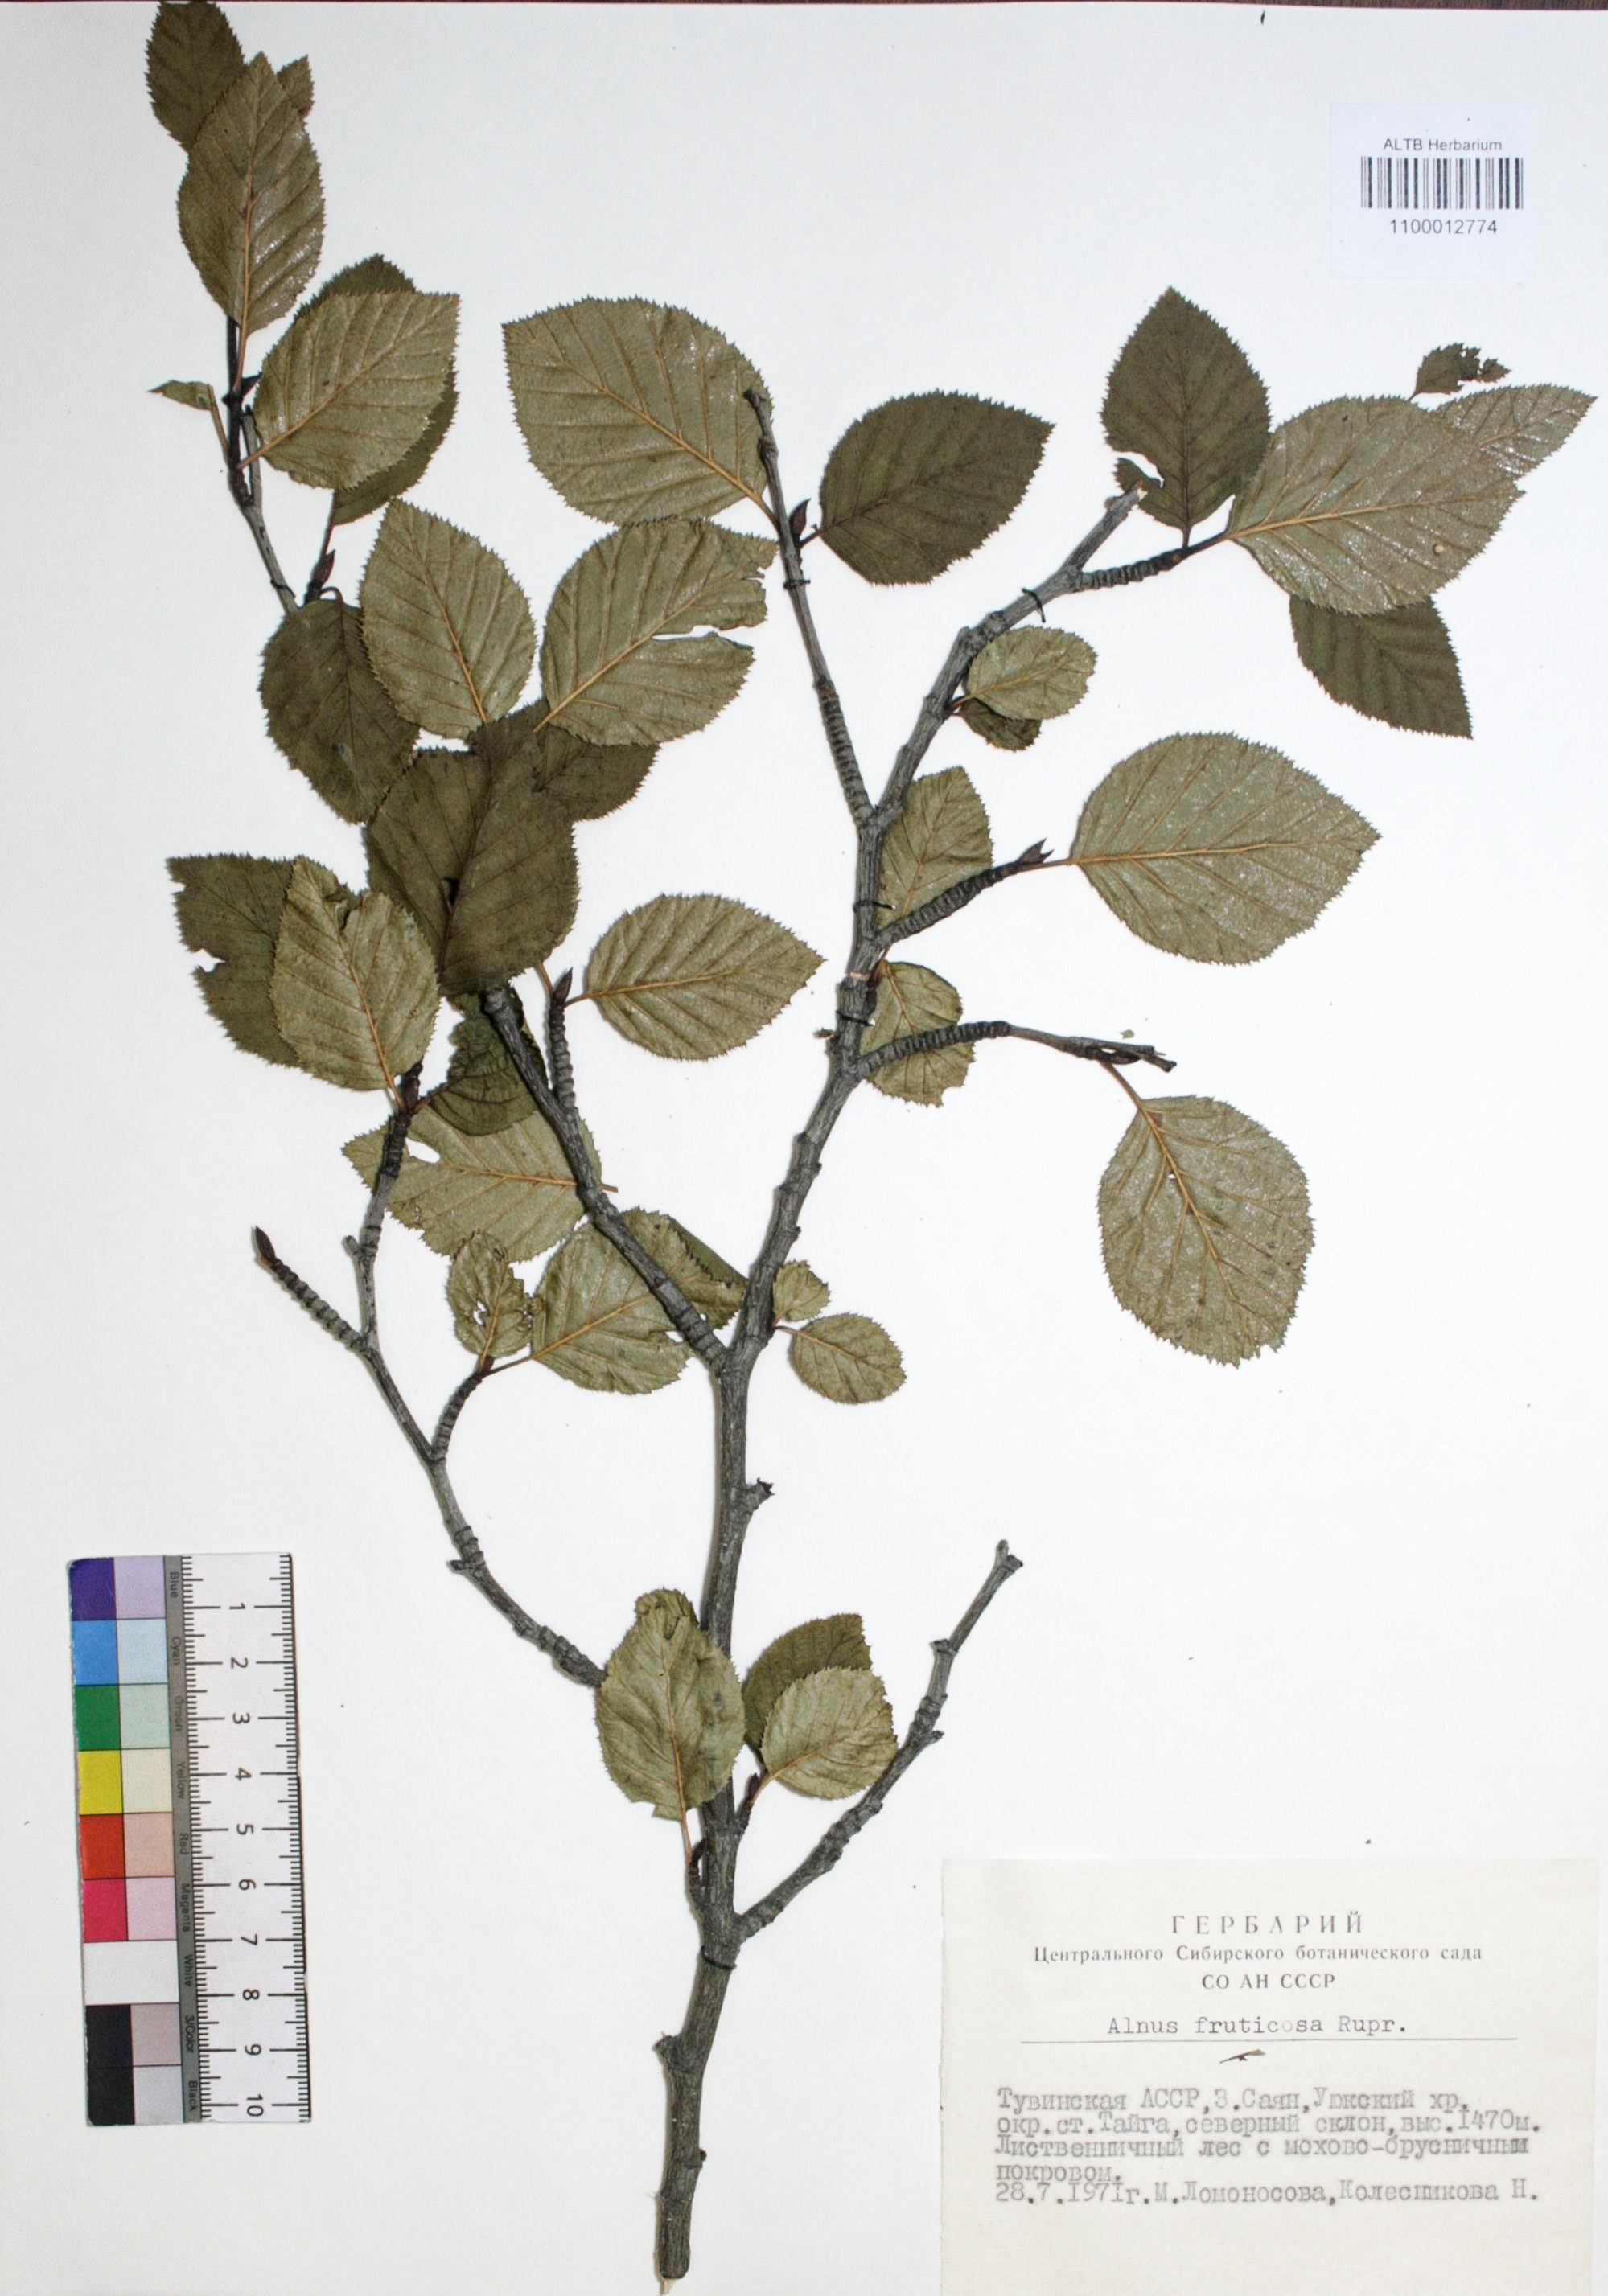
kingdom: Plantae
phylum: Tracheophyta
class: Magnoliopsida
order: Fagales
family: Betulaceae
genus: Alnus
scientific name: Alnus alnobetula
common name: Green alder
